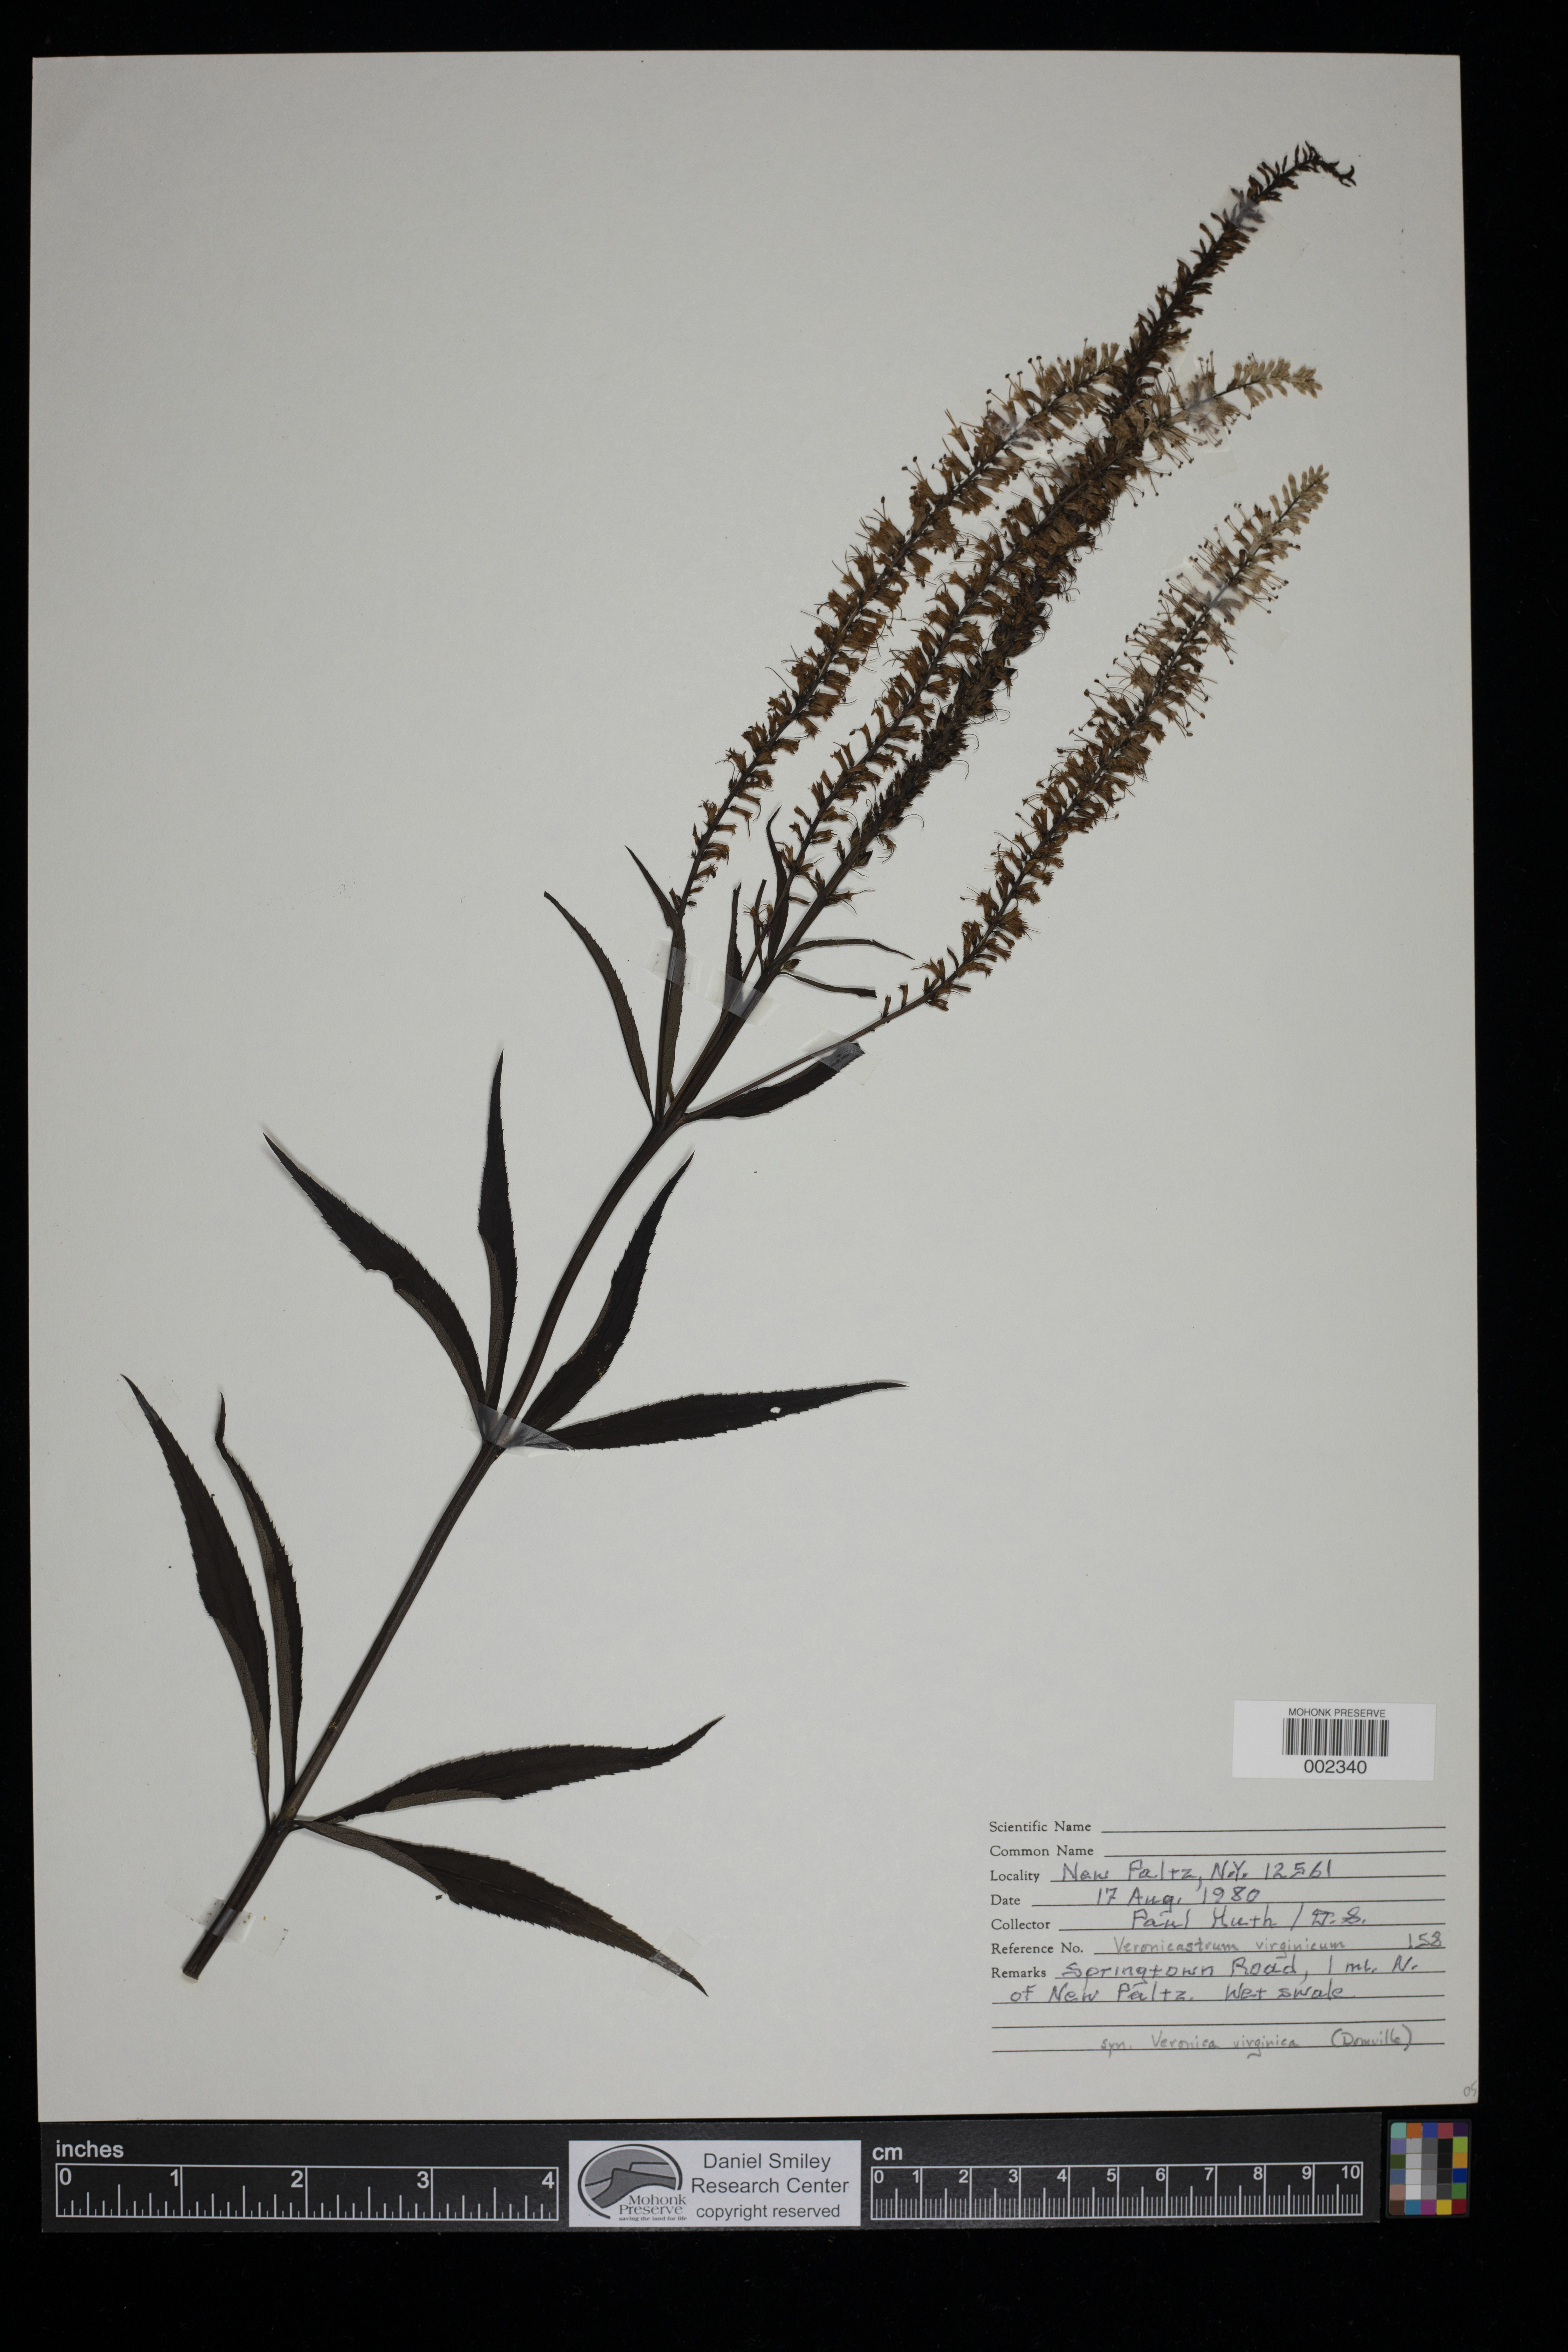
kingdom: Plantae
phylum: Tracheophyta
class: Magnoliopsida
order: Lamiales
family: Plantaginaceae
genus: Veronicastrum
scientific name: Veronicastrum virginicum
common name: Blackroot
